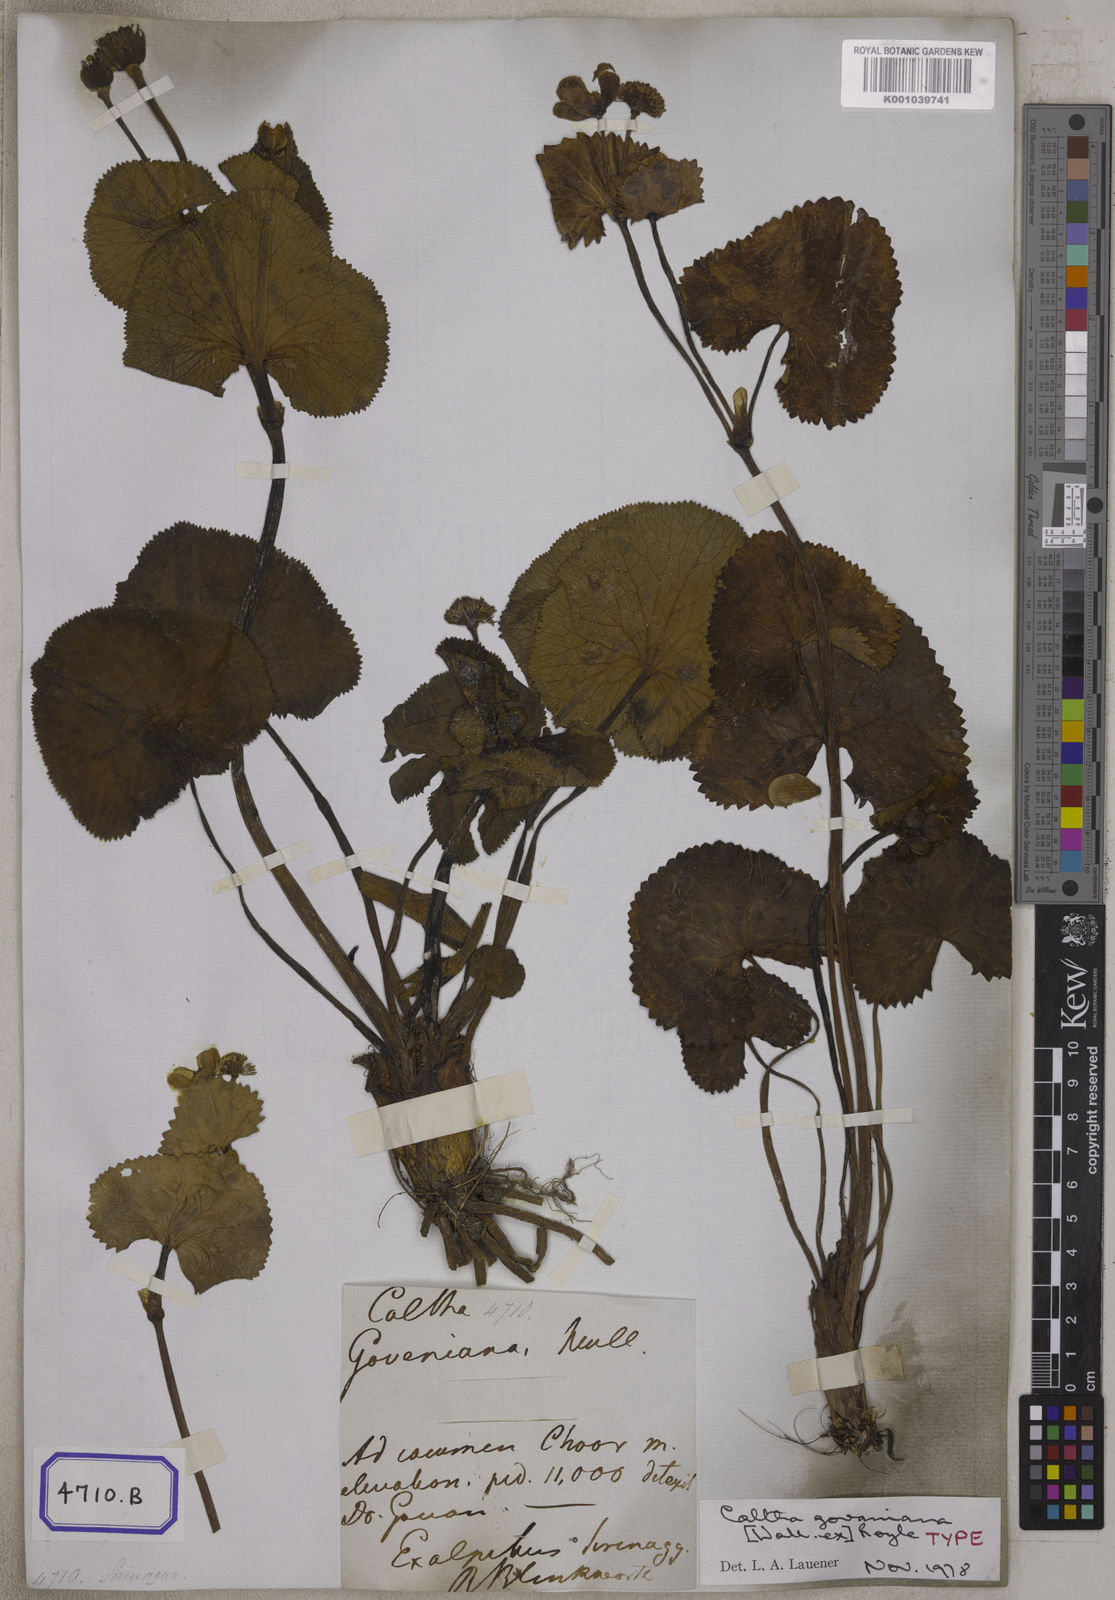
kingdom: Plantae
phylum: Tracheophyta
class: Magnoliopsida
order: Ranunculales
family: Ranunculaceae
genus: Caltha
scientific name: Caltha
